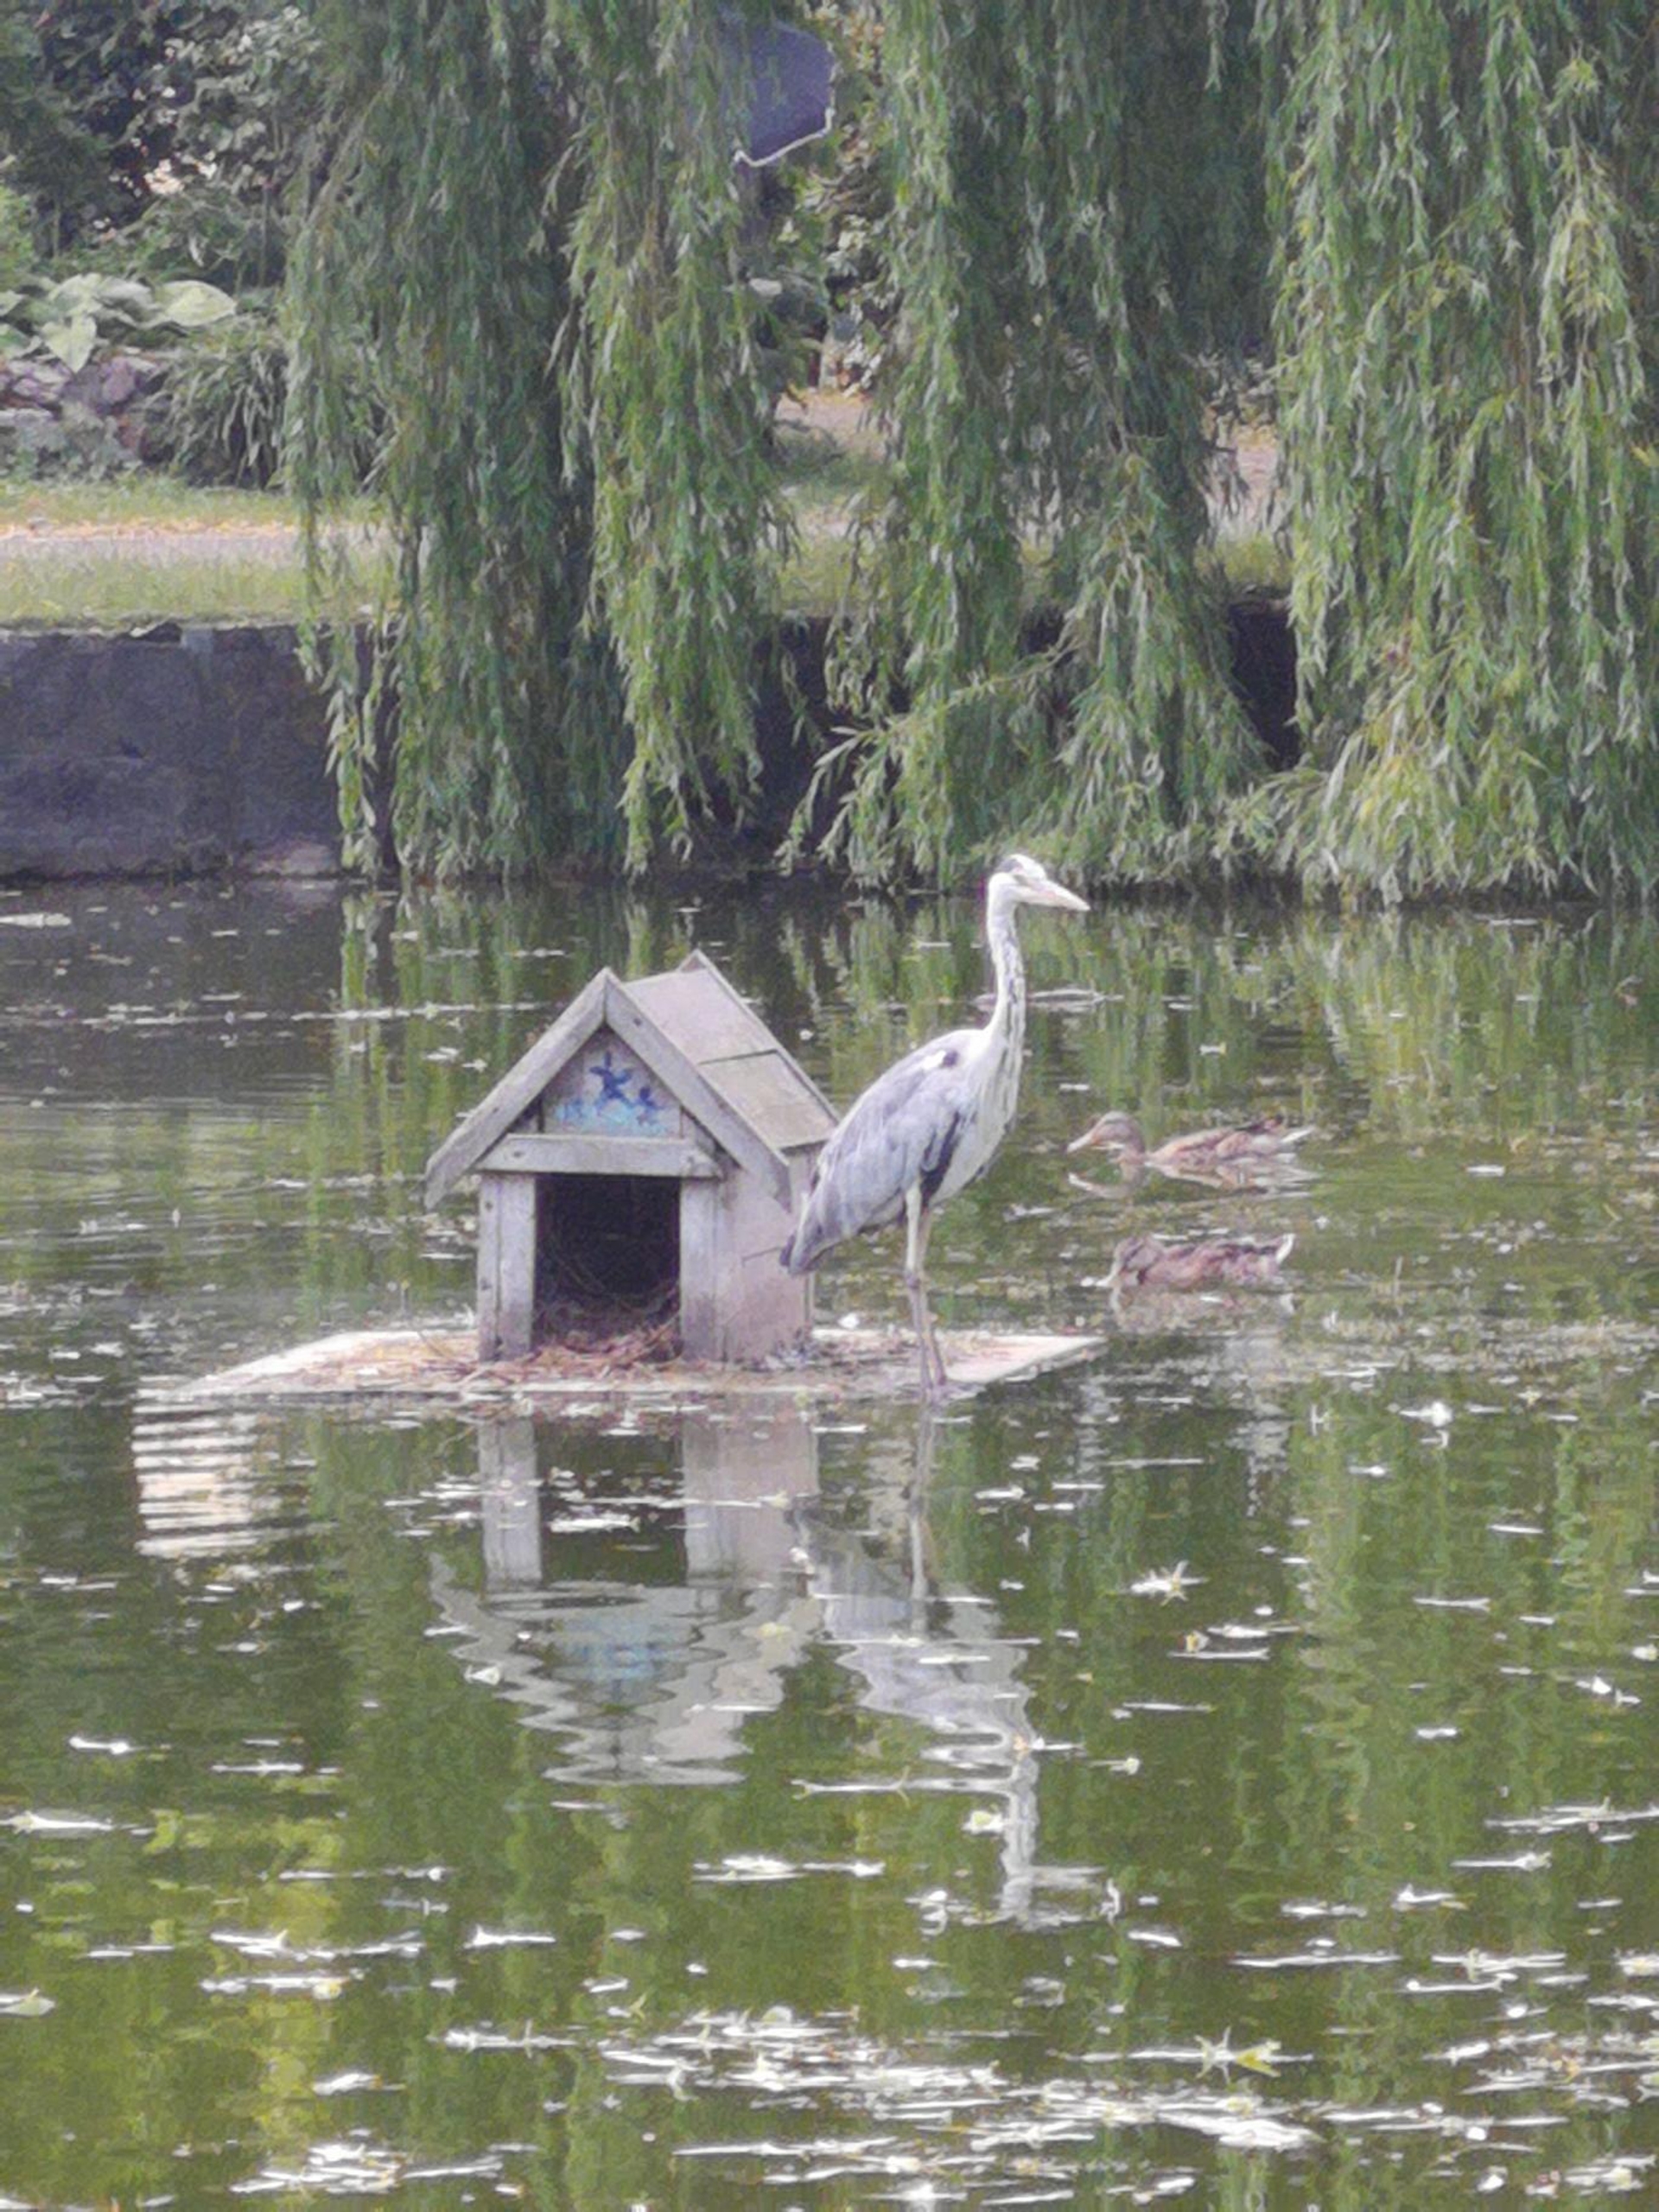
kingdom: Animalia
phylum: Chordata
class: Aves
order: Pelecaniformes
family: Ardeidae
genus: Ardea
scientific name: Ardea cinerea
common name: Fiskehejre
